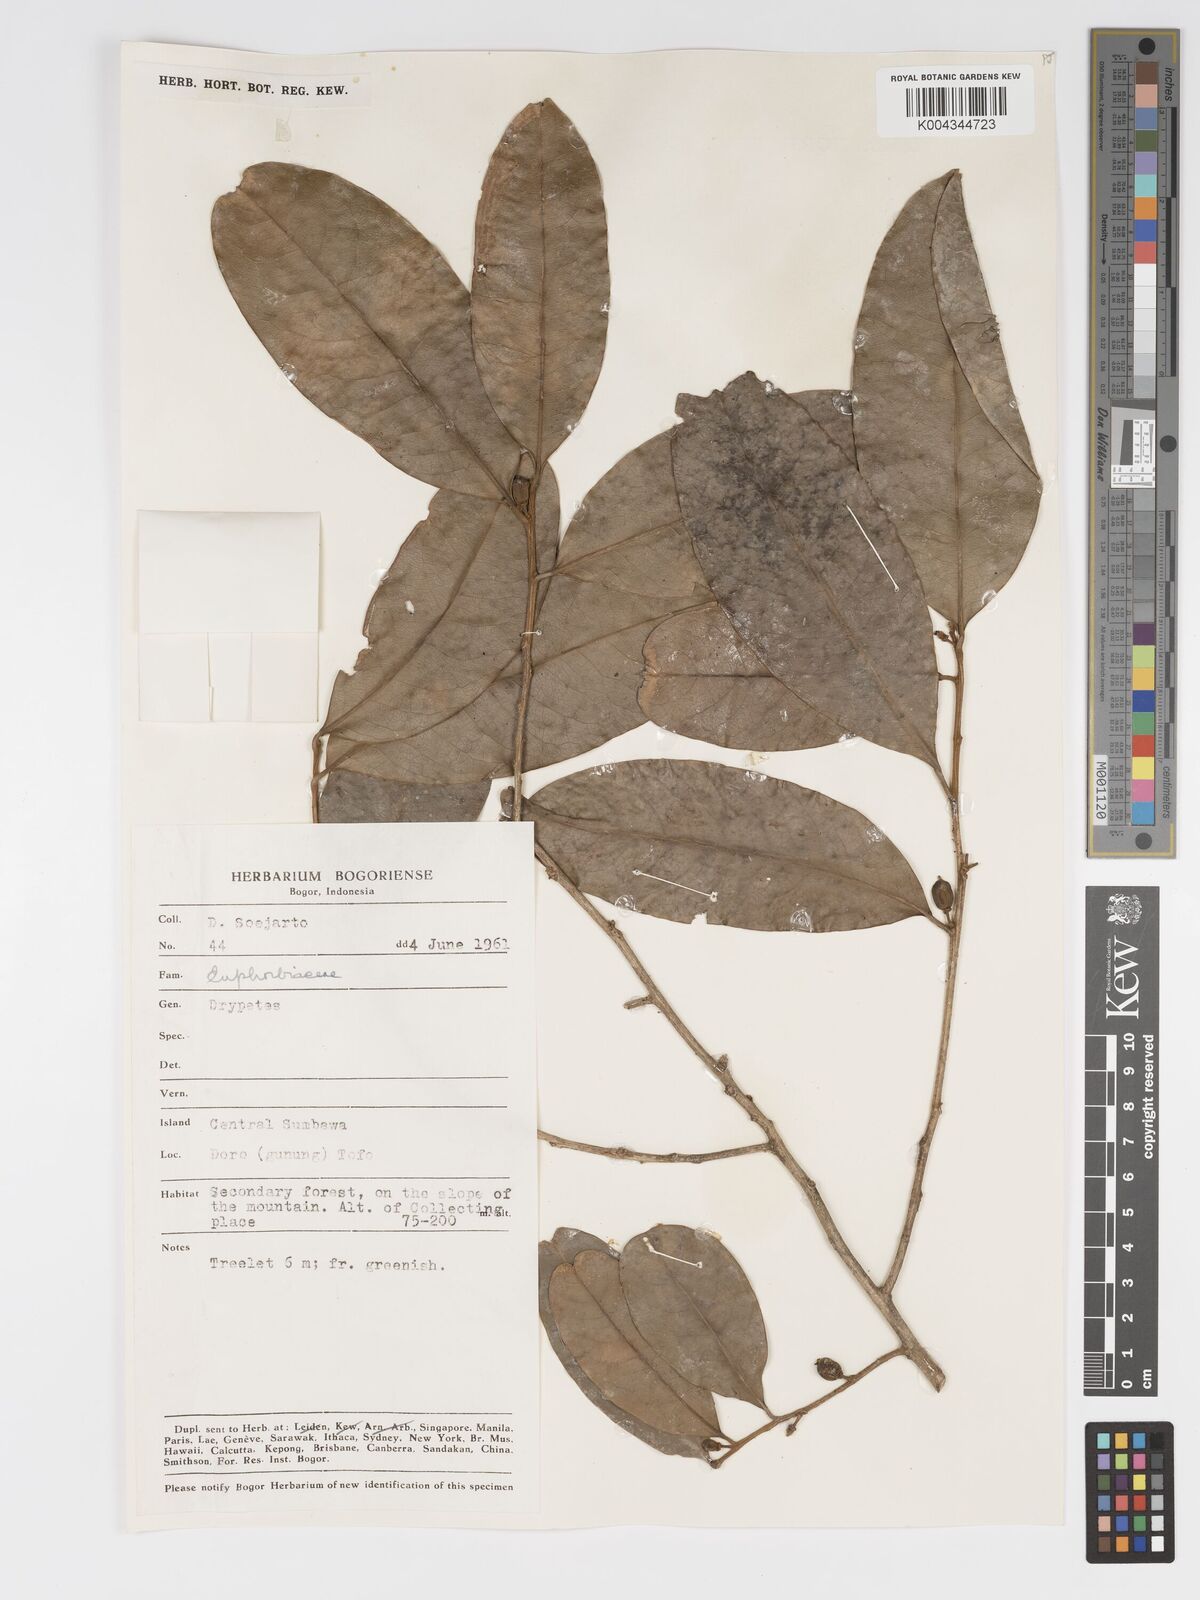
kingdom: Plantae
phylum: Tracheophyta
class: Magnoliopsida
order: Malpighiales
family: Putranjivaceae
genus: Drypetes
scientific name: Drypetes subcubica
